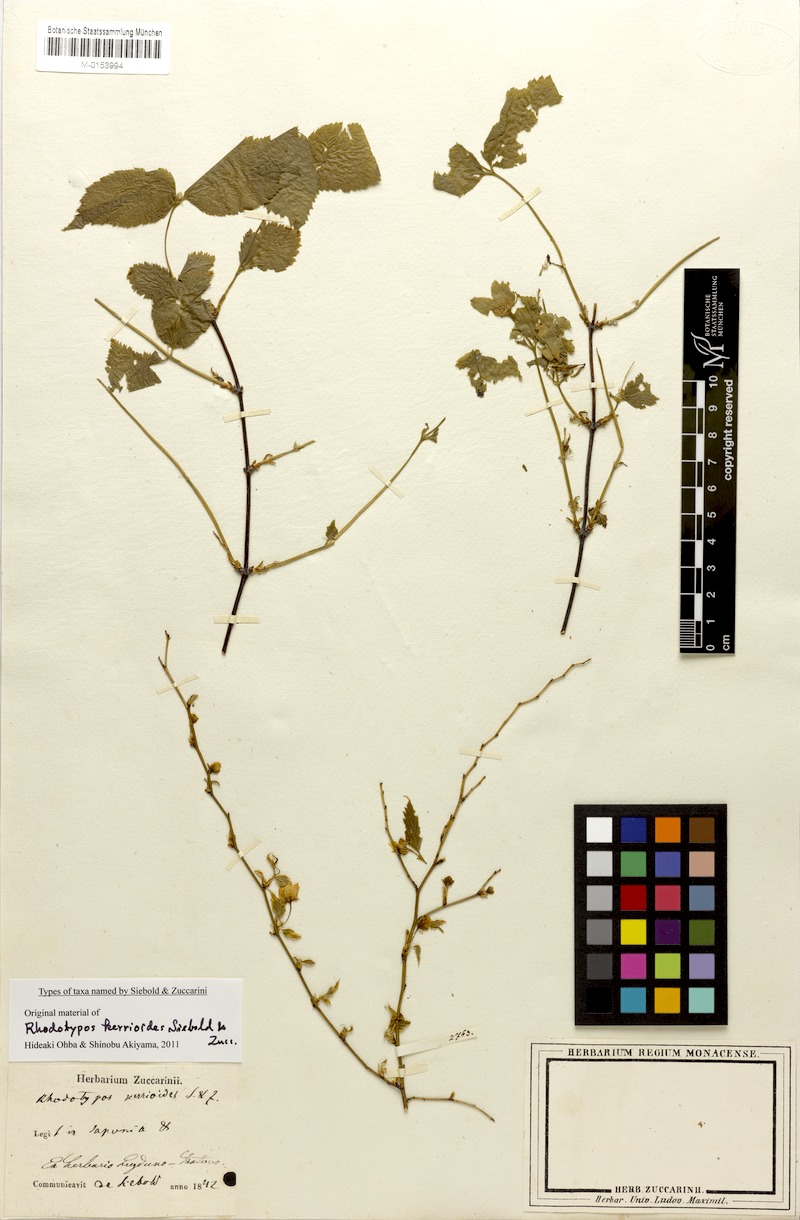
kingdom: Plantae
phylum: Tracheophyta
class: Magnoliopsida
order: Rosales
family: Rosaceae
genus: Rhodotypos
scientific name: Rhodotypos scandens
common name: Jetbead
